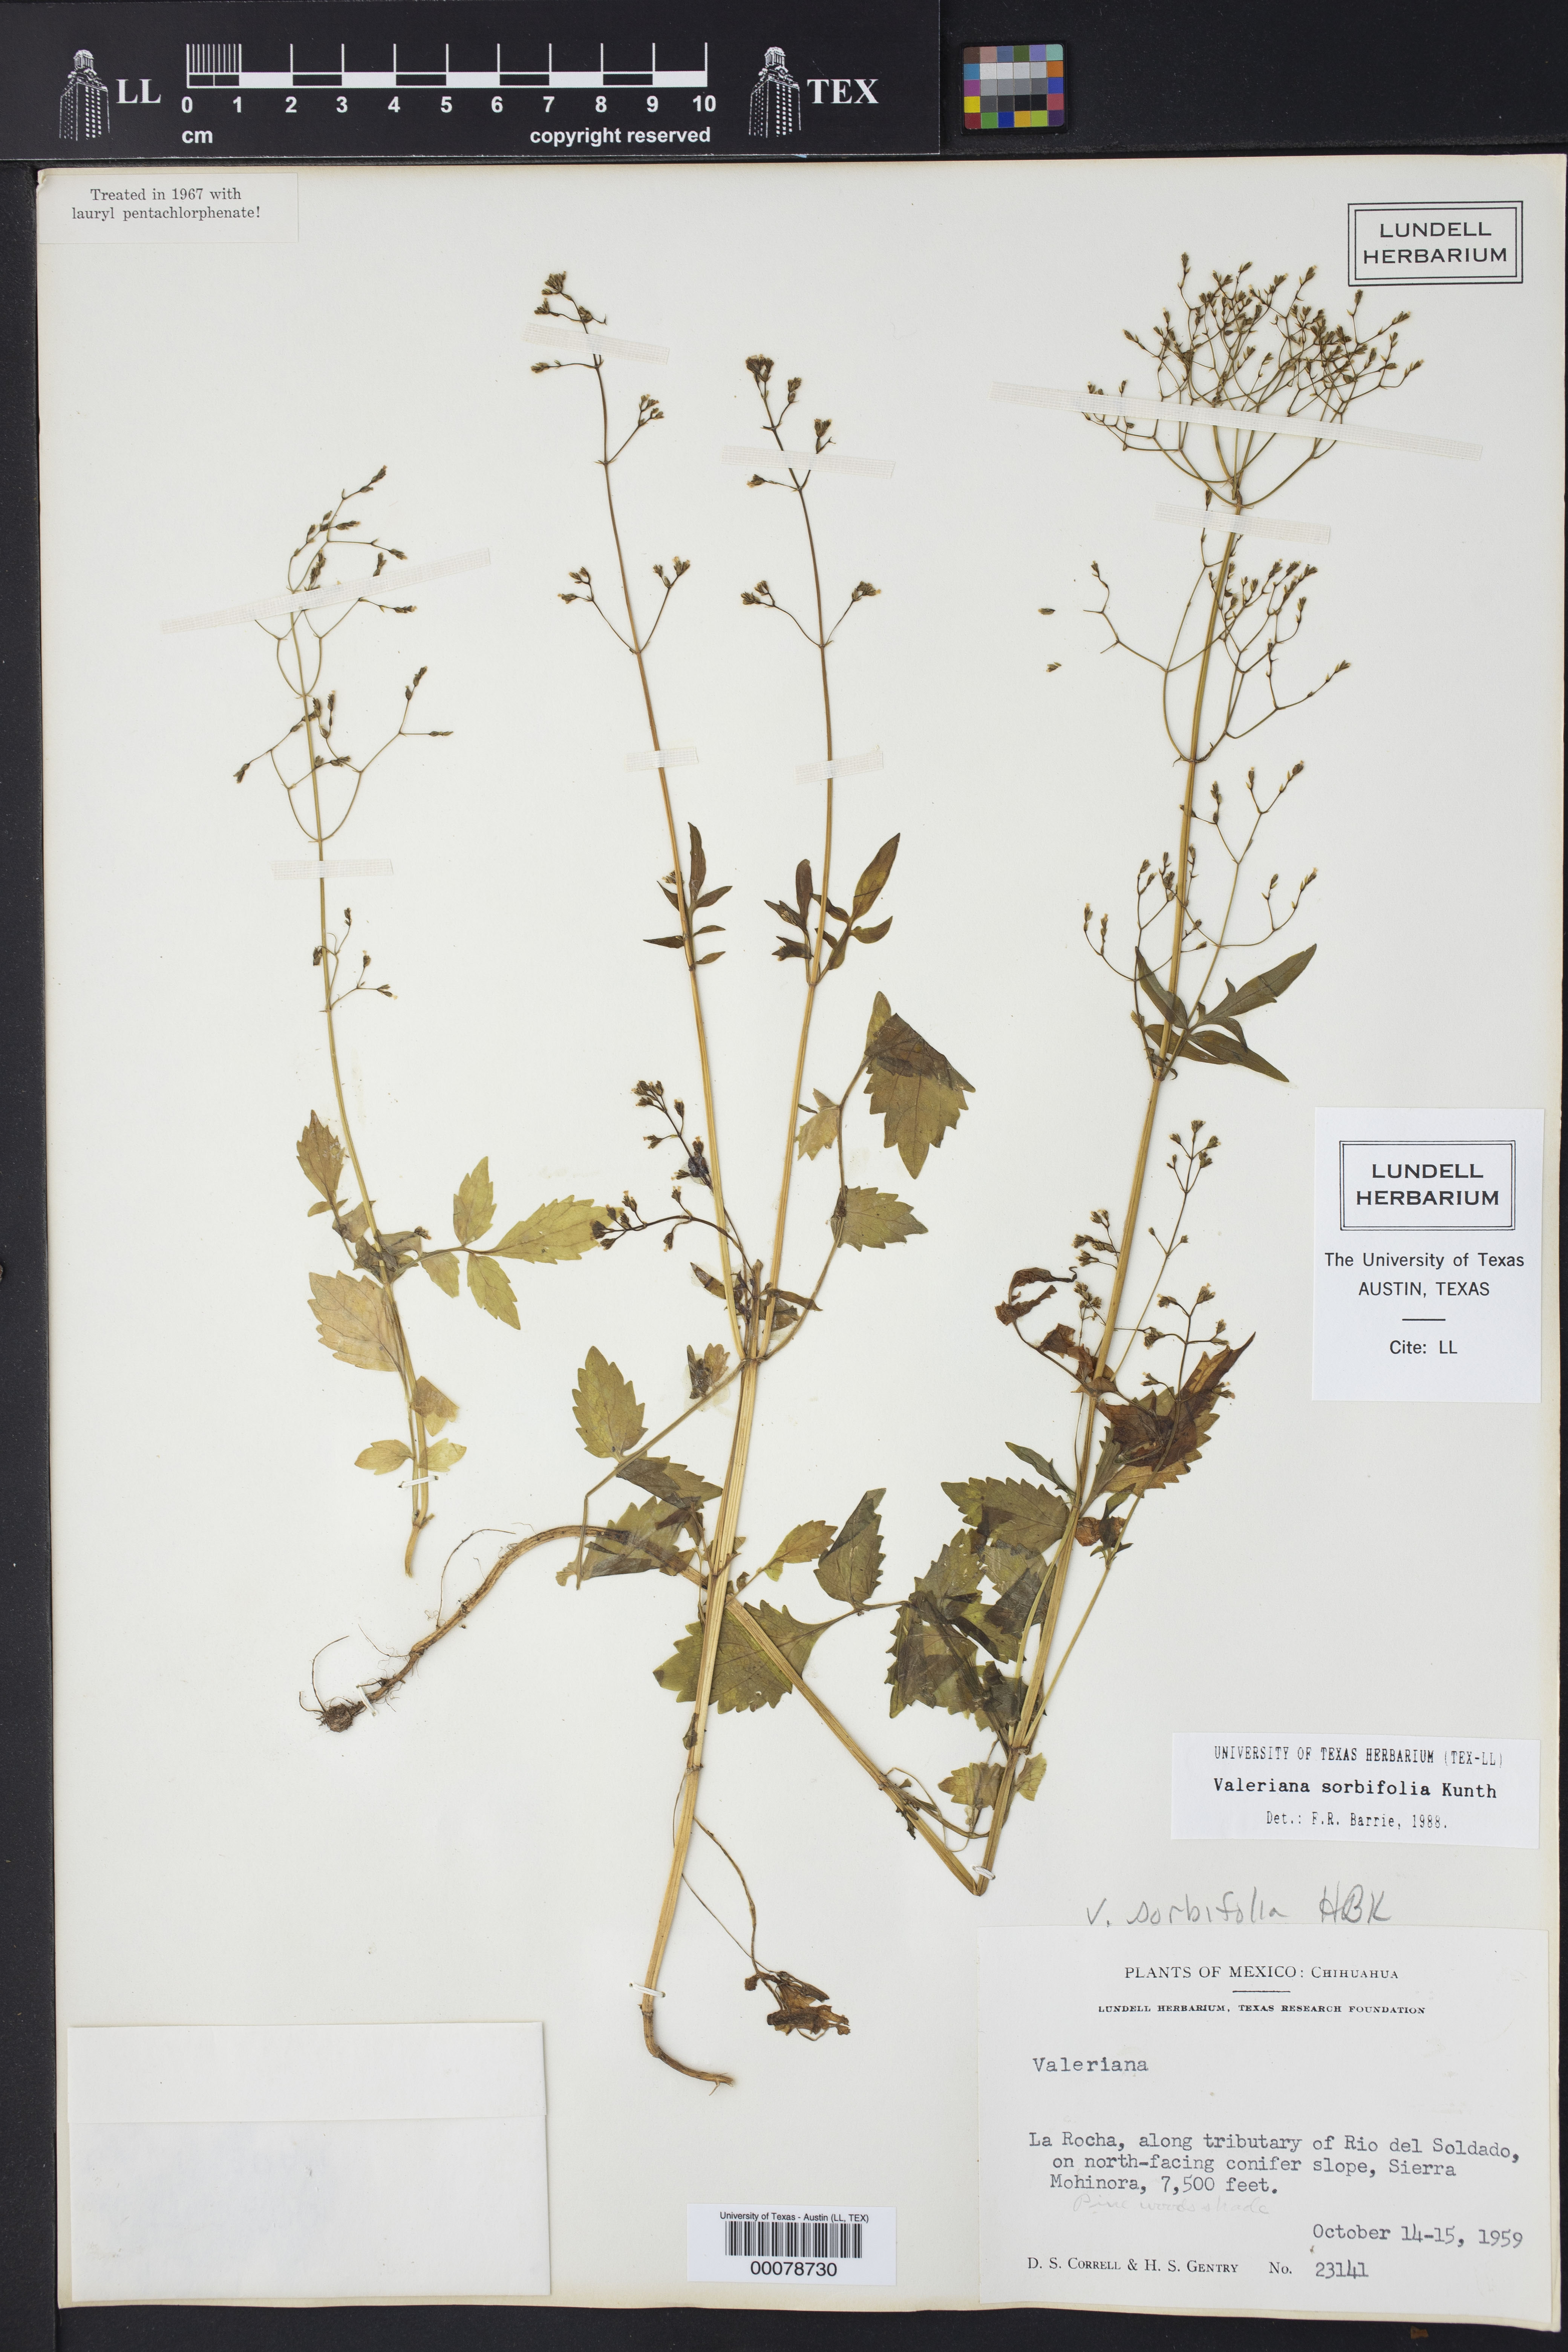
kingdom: Plantae
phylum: Tracheophyta
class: Magnoliopsida
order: Dipsacales
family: Caprifoliaceae
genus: Valeriana
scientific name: Valeriana sorbifolia
